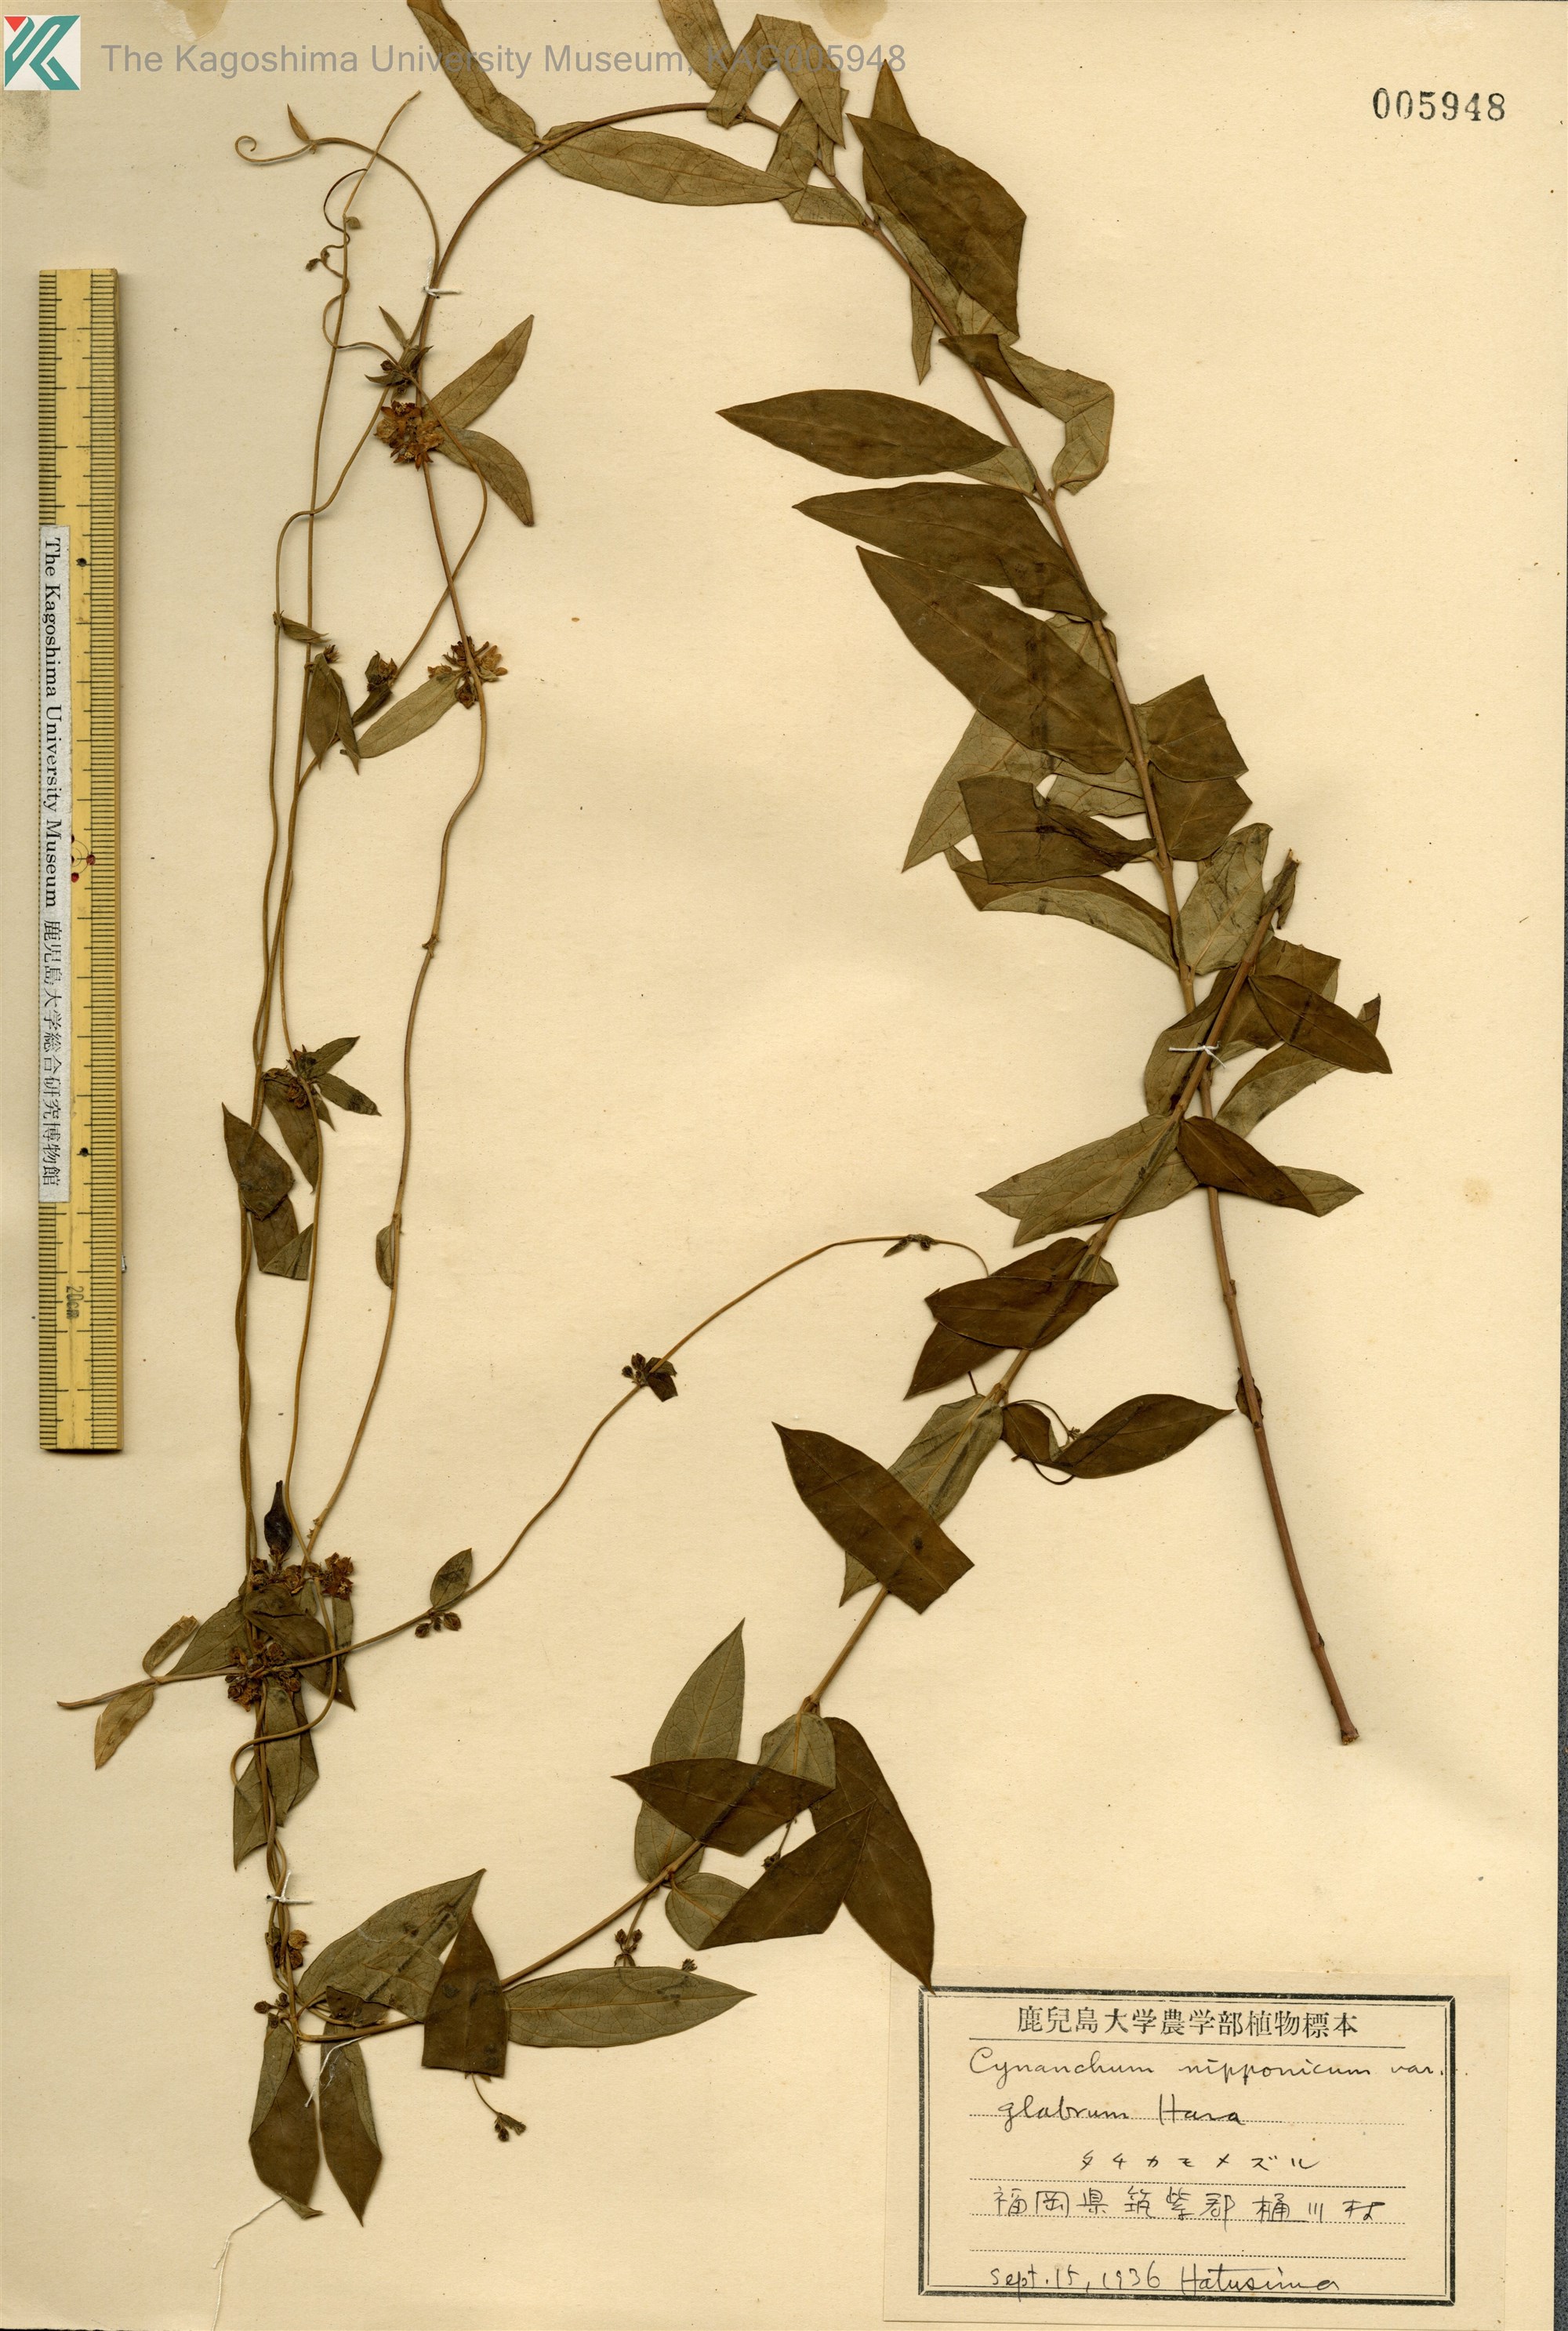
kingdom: Plantae
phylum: Tracheophyta
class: Magnoliopsida
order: Gentianales
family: Apocynaceae
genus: Vincetoxicum
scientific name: Vincetoxicum nipponicum
